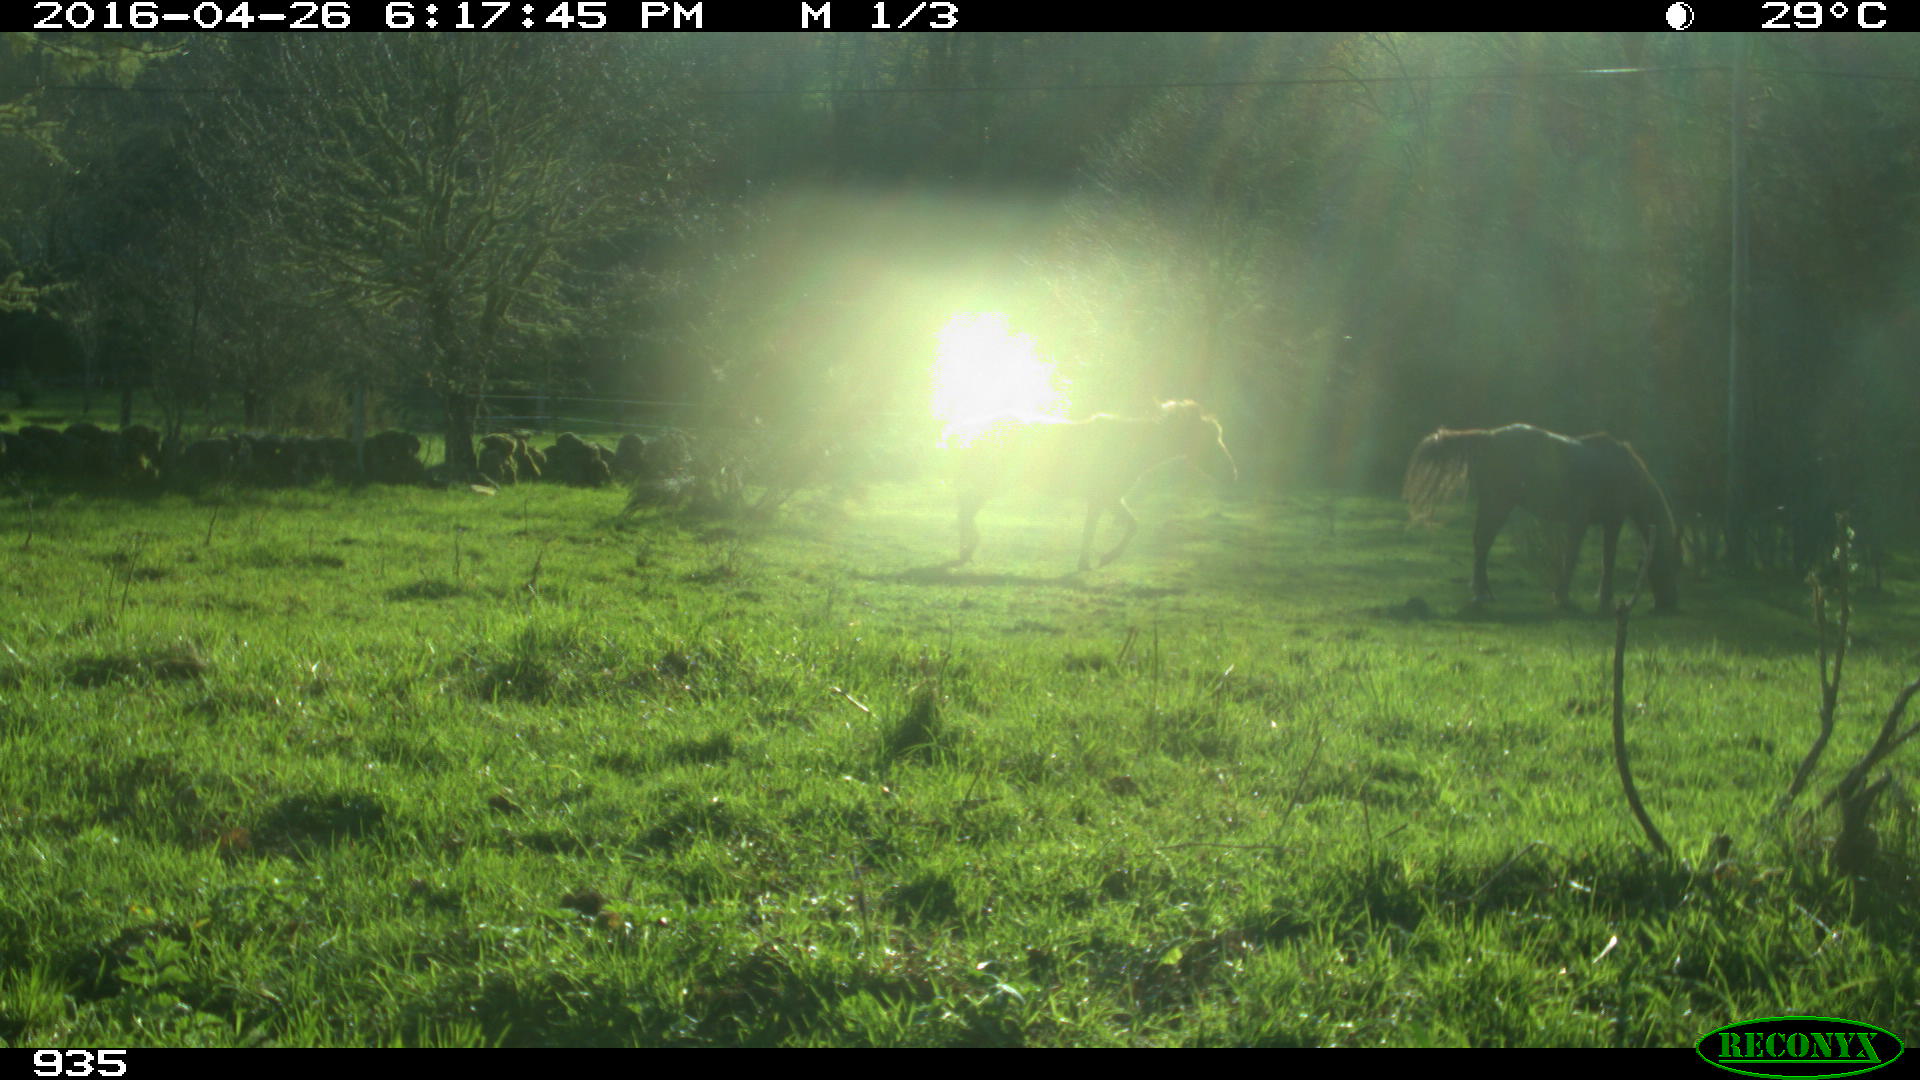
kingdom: Animalia
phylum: Chordata
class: Mammalia
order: Perissodactyla
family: Equidae
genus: Equus
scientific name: Equus caballus
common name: Horse
